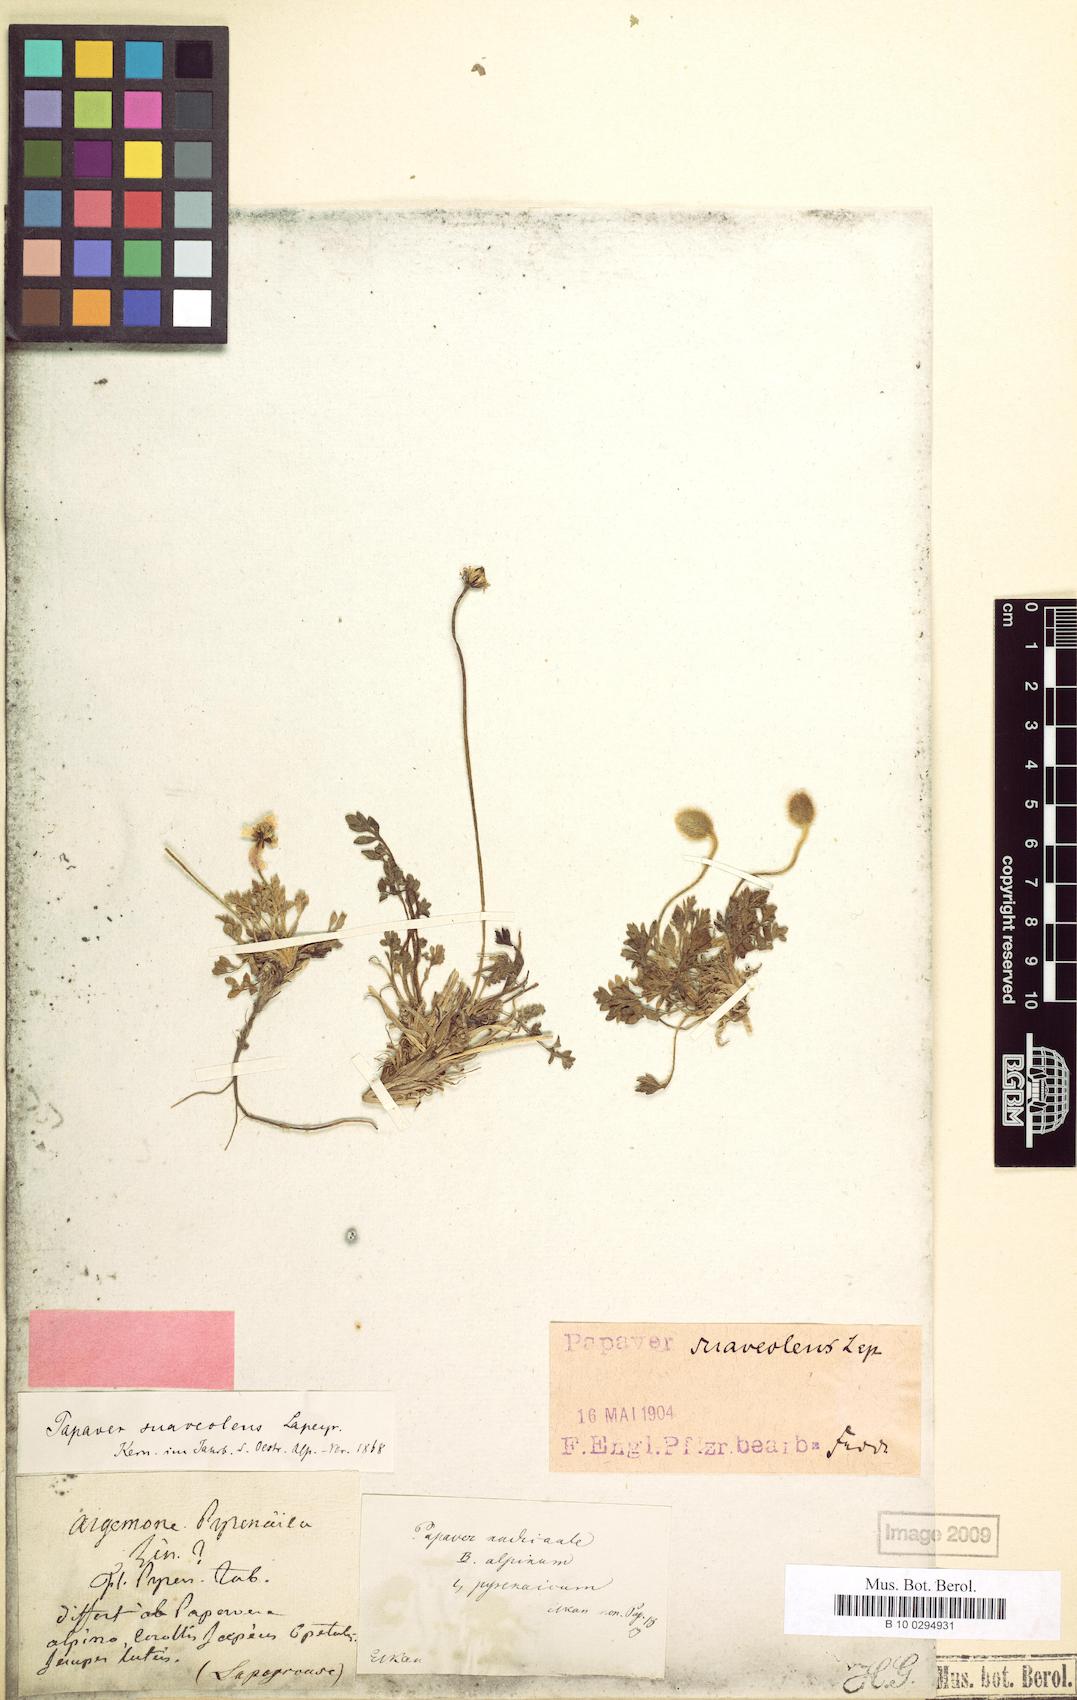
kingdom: Plantae
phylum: Tracheophyta
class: Magnoliopsida
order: Ranunculales
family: Papaveraceae
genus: Papaver
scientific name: Papaver alpinum
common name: Austrian poppy
